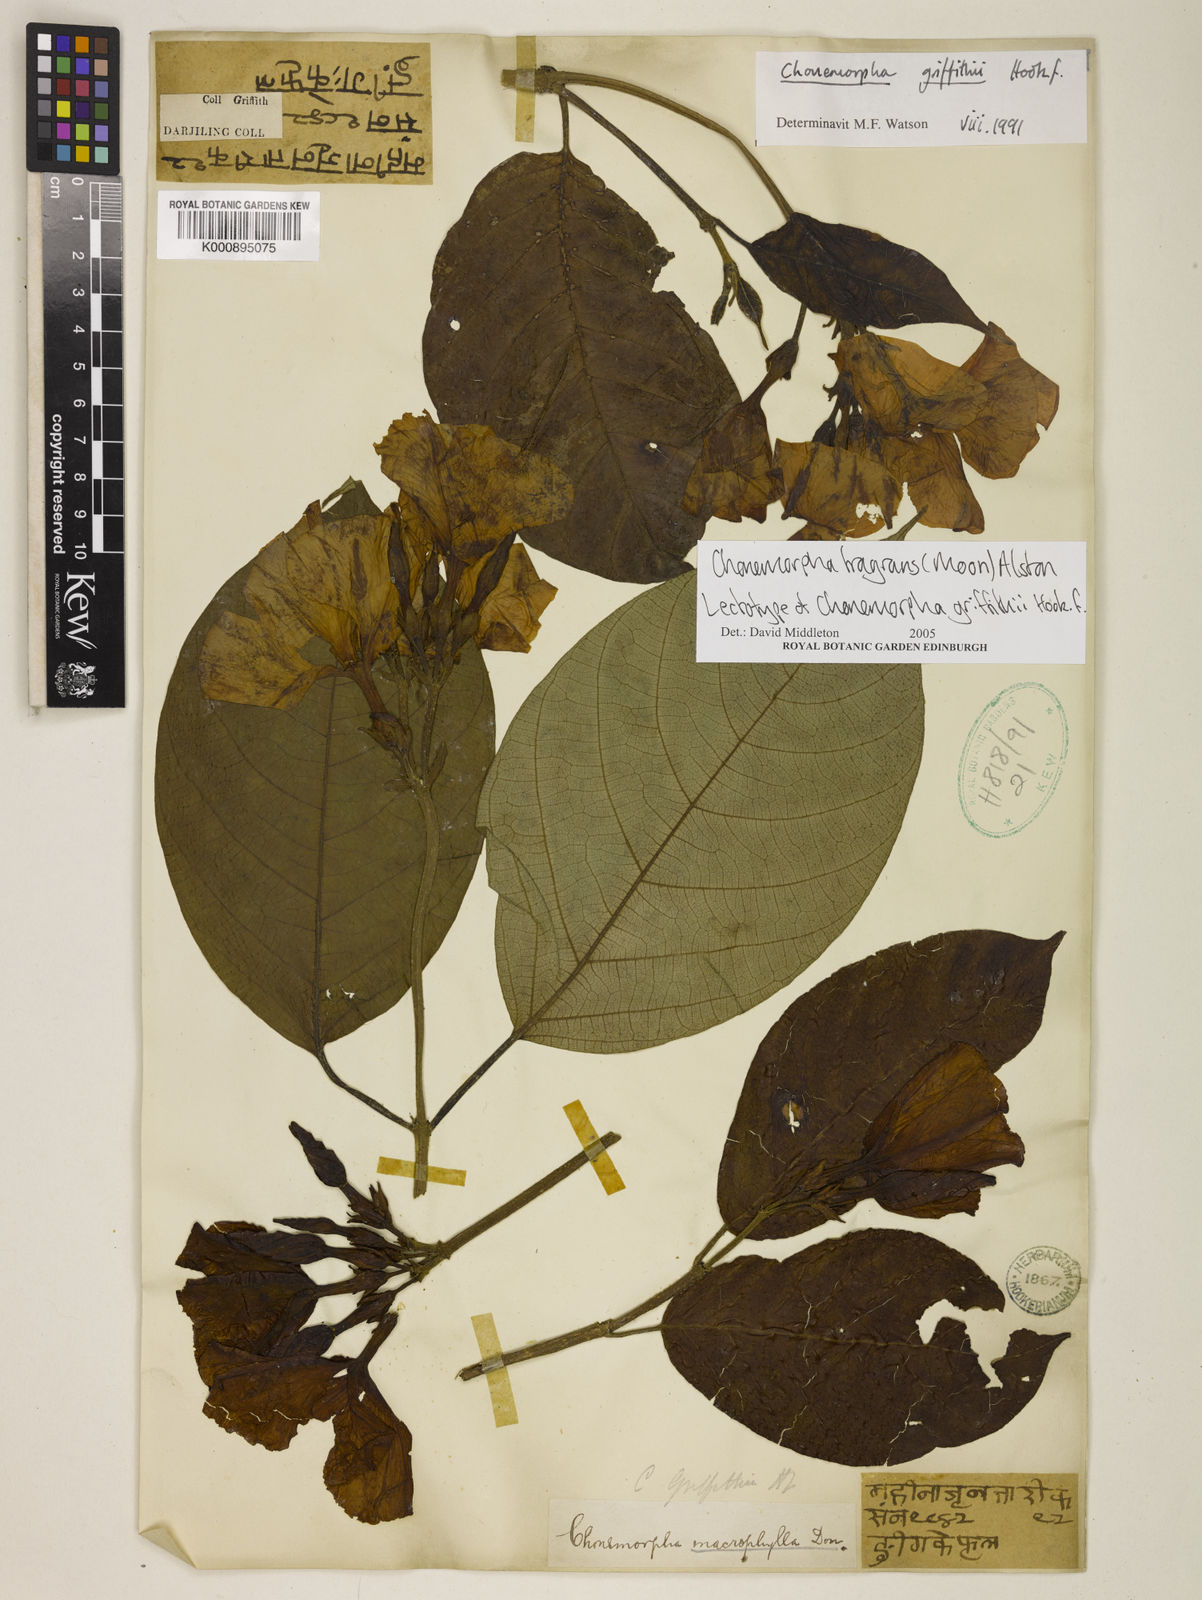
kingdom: Plantae
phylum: Tracheophyta
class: Magnoliopsida
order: Gentianales
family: Apocynaceae
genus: Chonemorpha
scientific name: Chonemorpha griffithii
